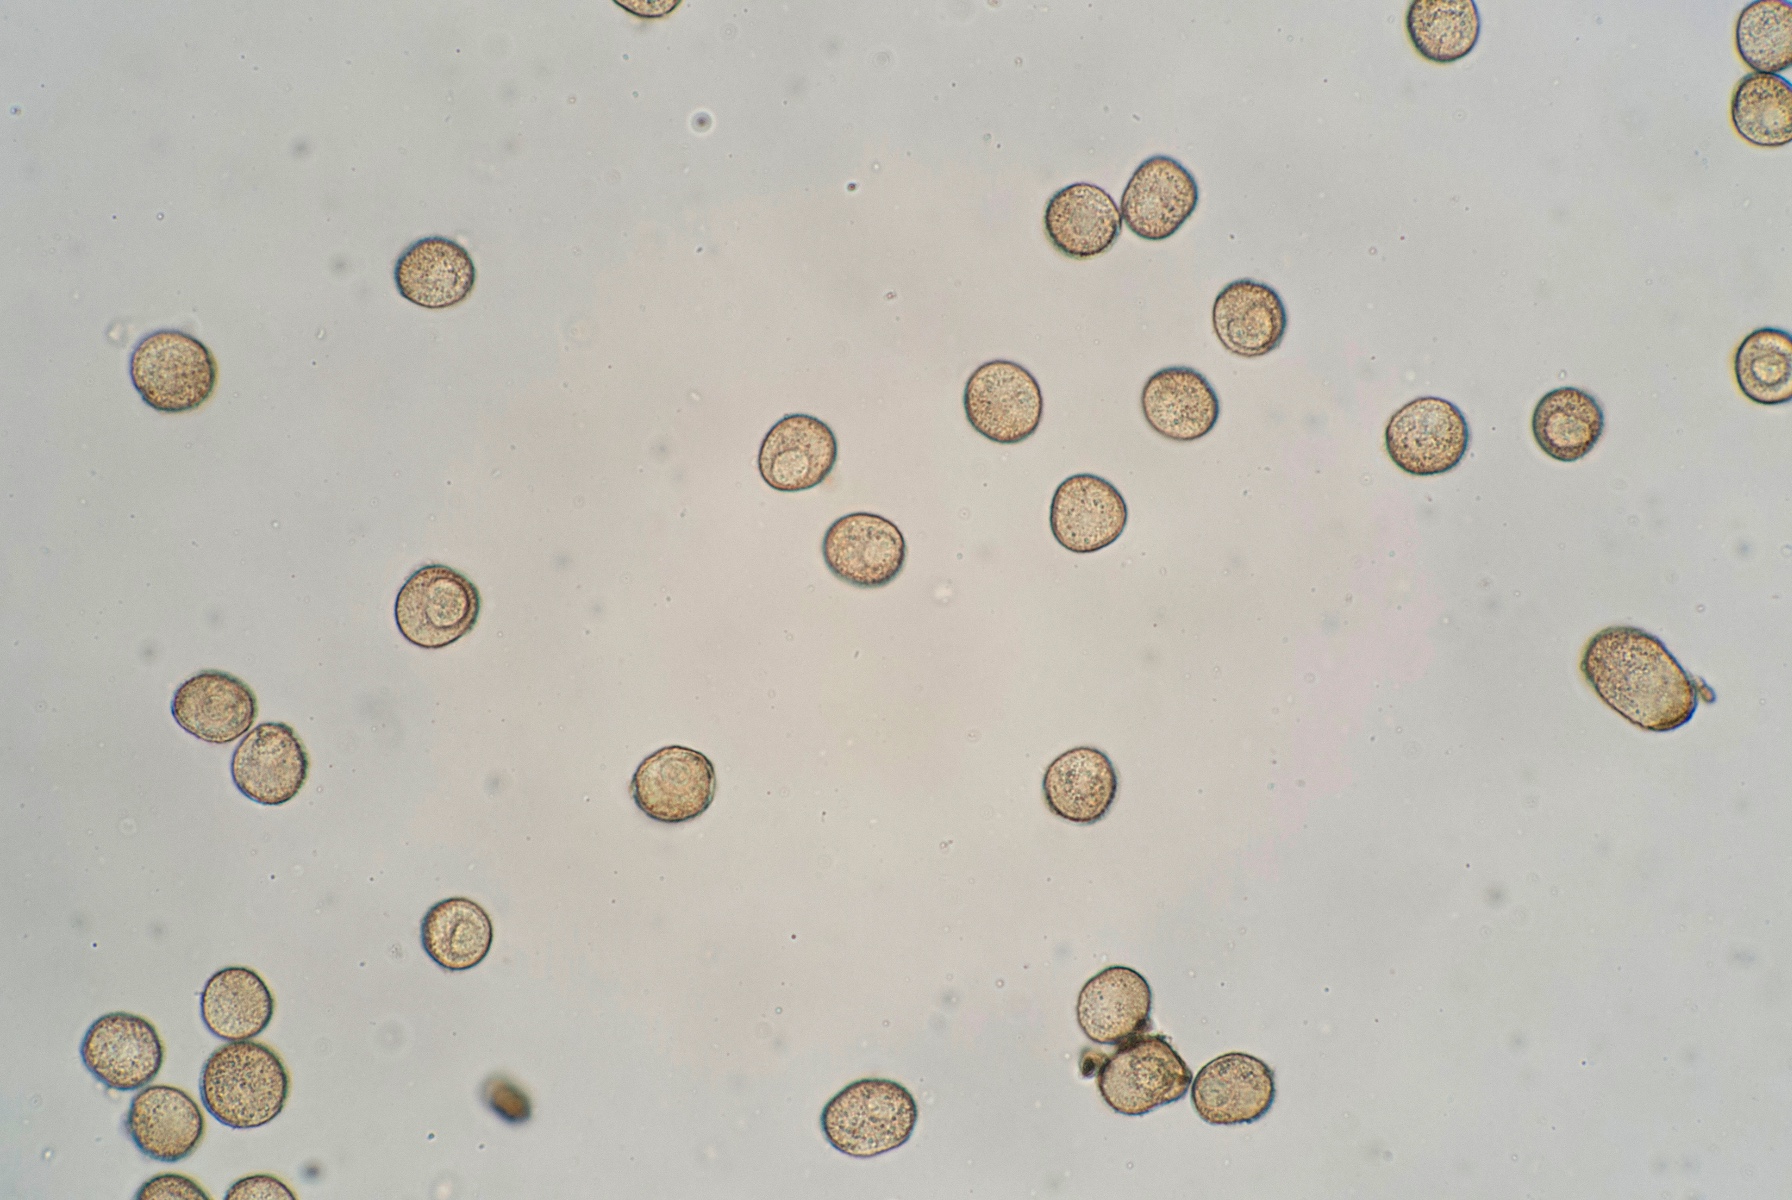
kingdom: Protozoa
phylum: Mycetozoa
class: Myxomycetes
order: Trichiales
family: Trichiaceae
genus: Trichia
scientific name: Trichia varia
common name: foranderlig hårbold
